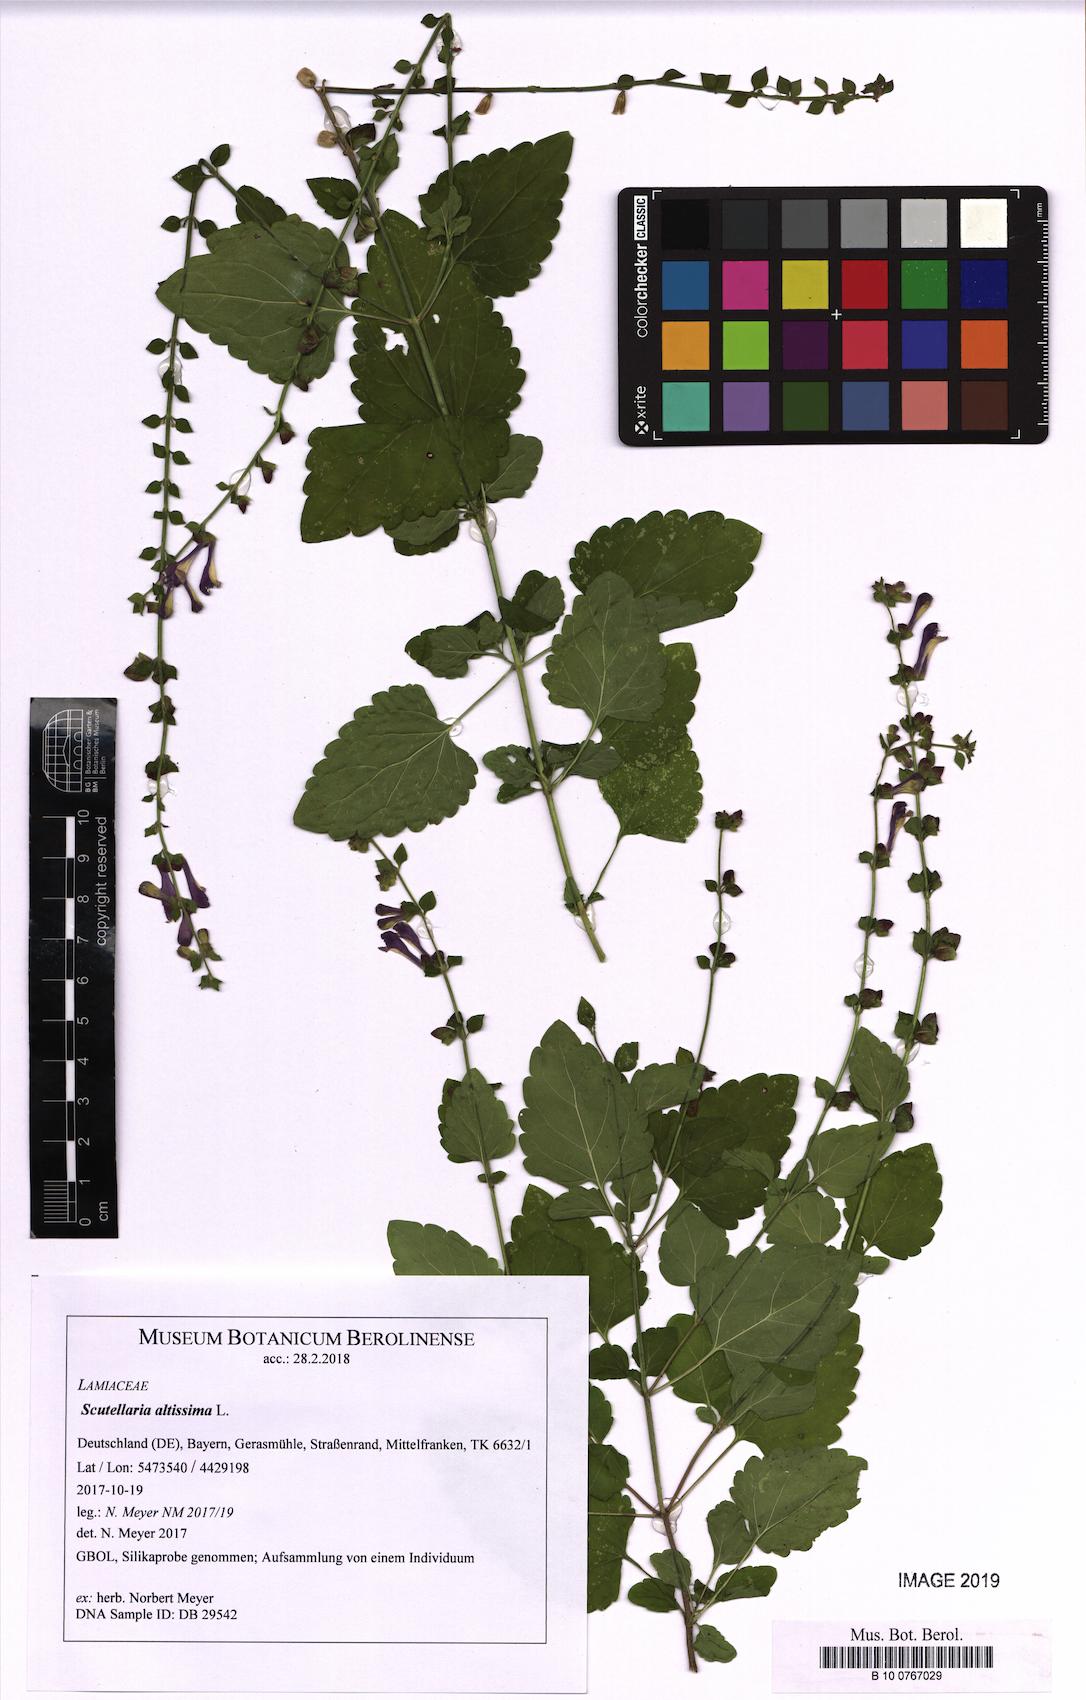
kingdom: Plantae
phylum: Tracheophyta
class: Magnoliopsida
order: Lamiales
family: Lamiaceae
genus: Scutellaria
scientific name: Scutellaria altissima
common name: Somerset skullcap
